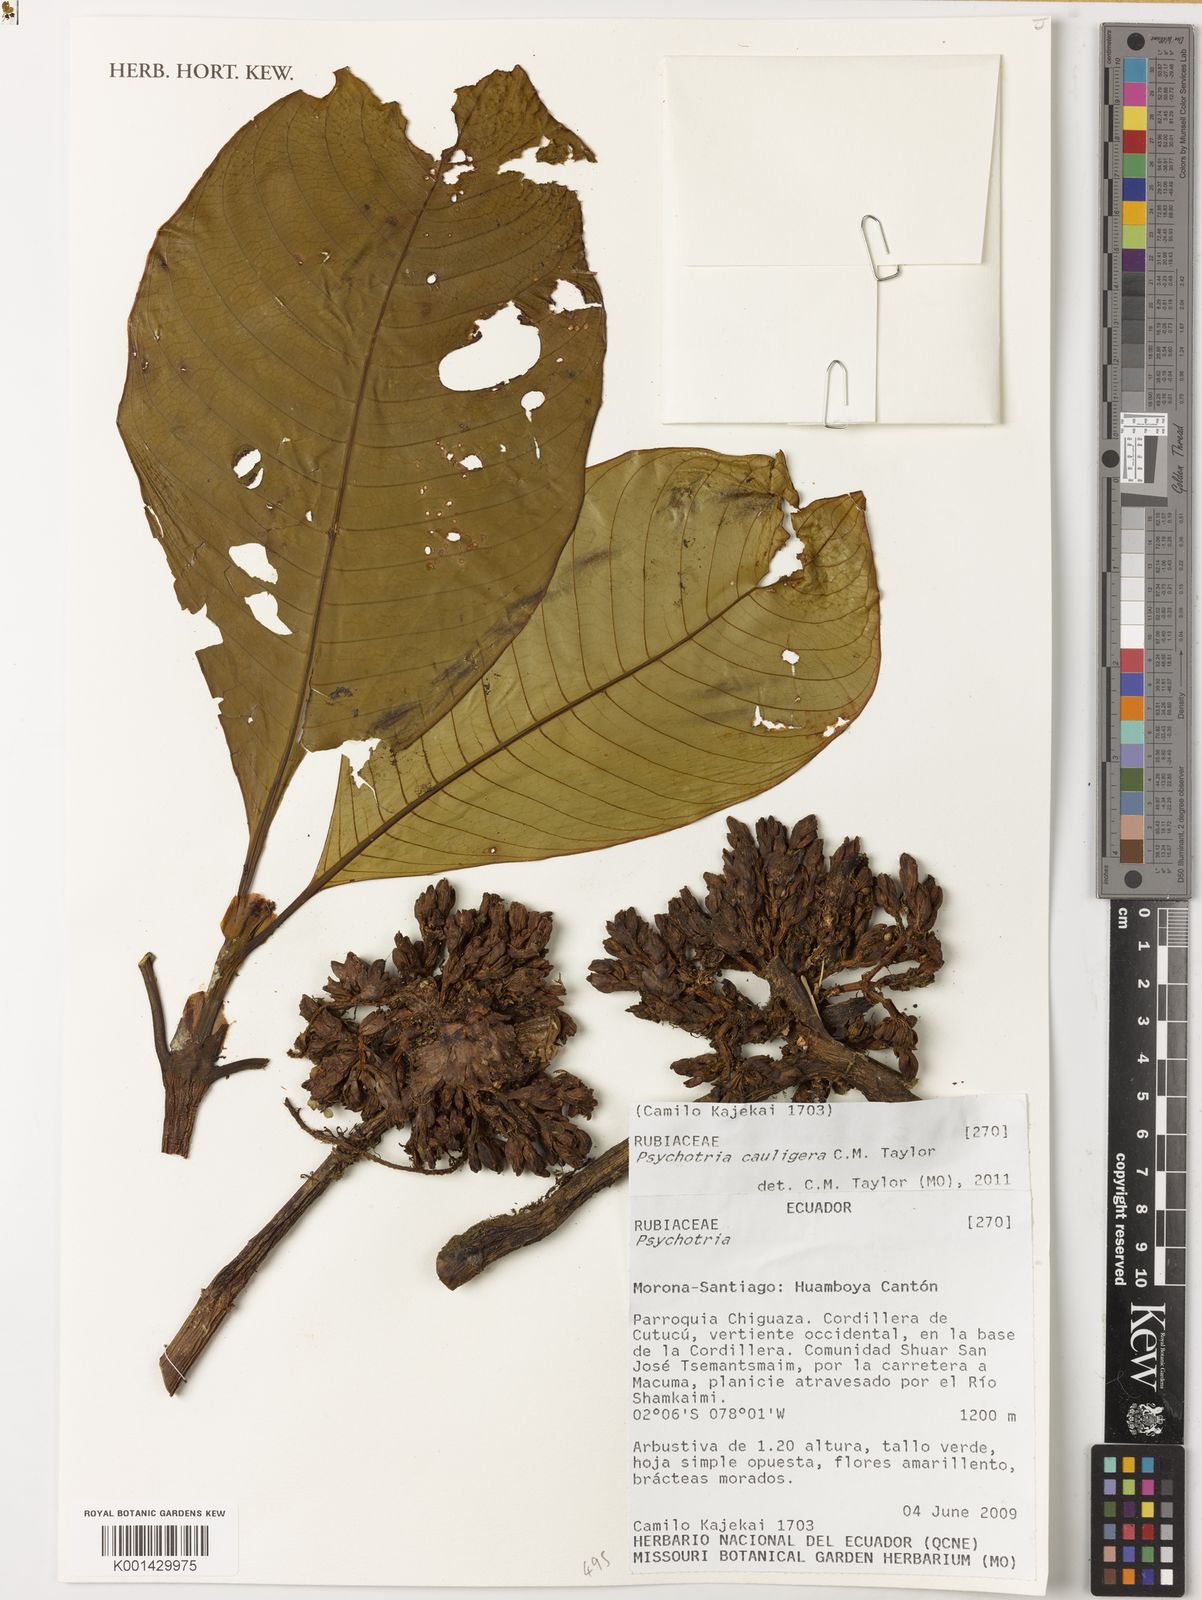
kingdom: Plantae
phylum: Tracheophyta
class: Magnoliopsida
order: Gentianales
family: Rubiaceae
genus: Psychotria
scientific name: Psychotria cauligera
